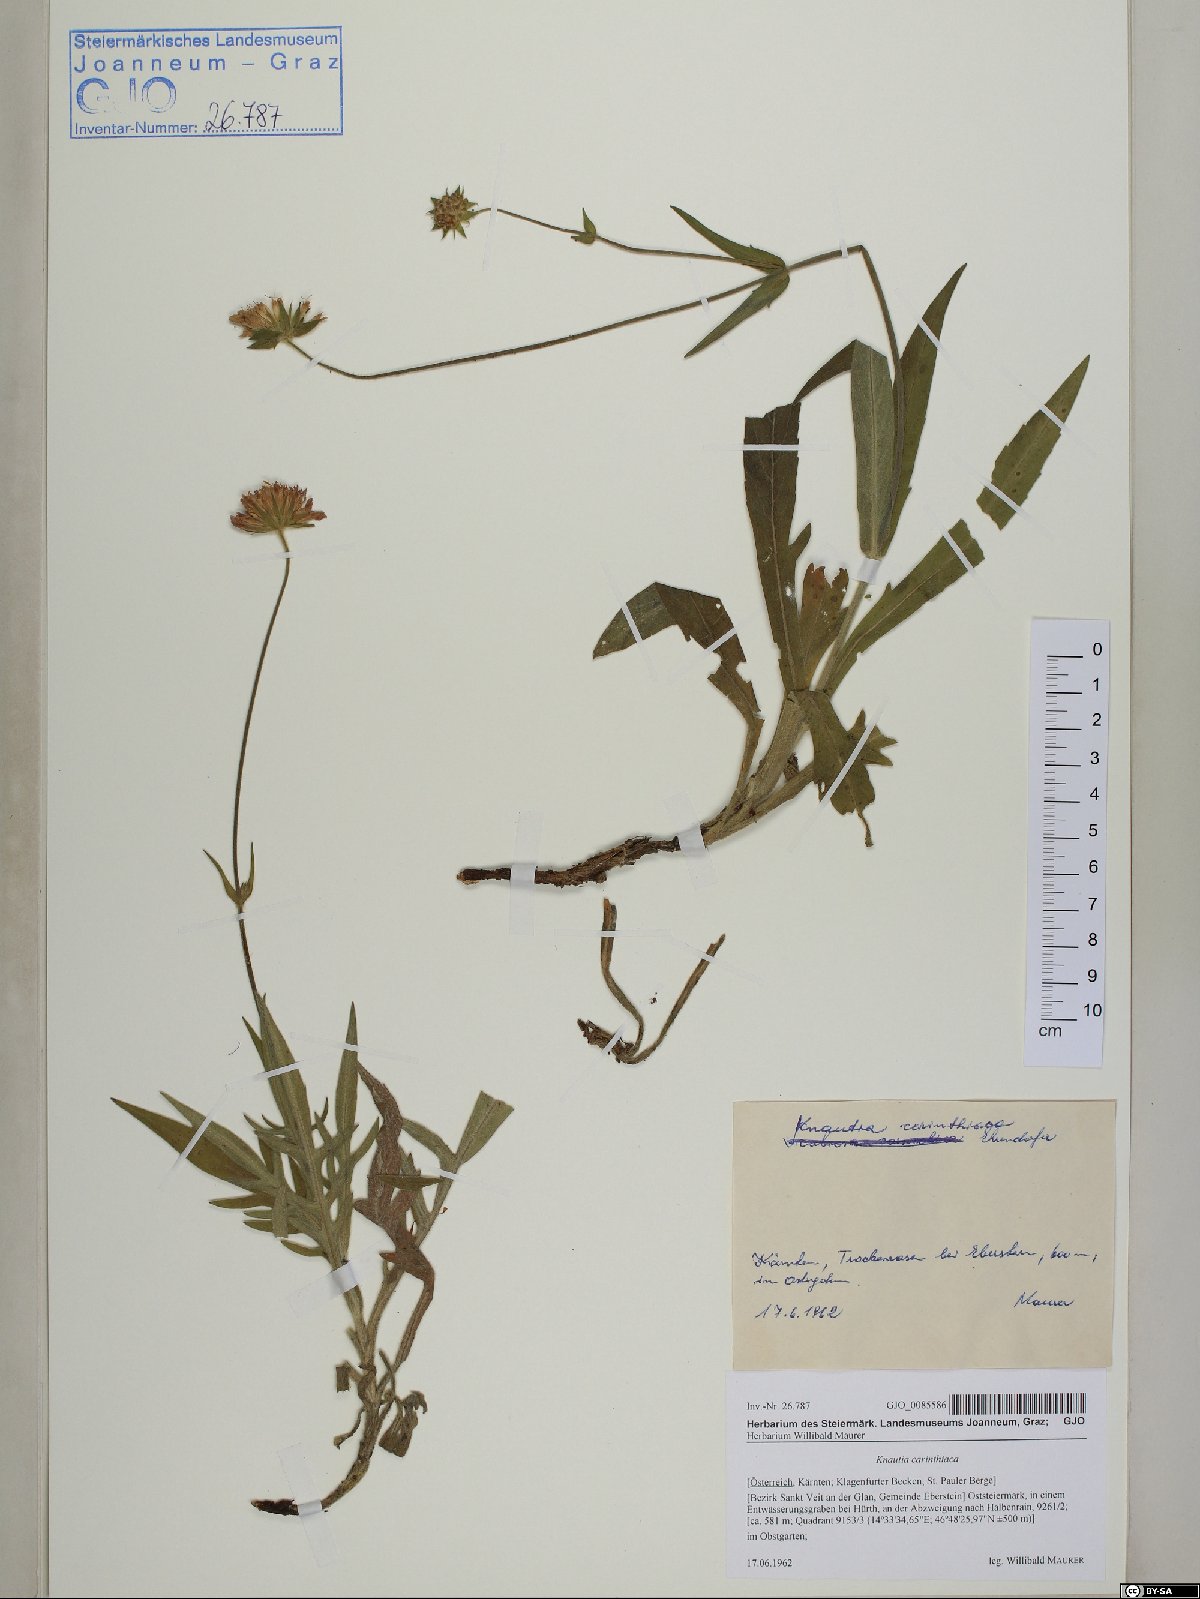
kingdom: Plantae
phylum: Tracheophyta
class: Magnoliopsida
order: Dipsacales
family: Caprifoliaceae
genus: Knautia
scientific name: Knautia carinthiaca
